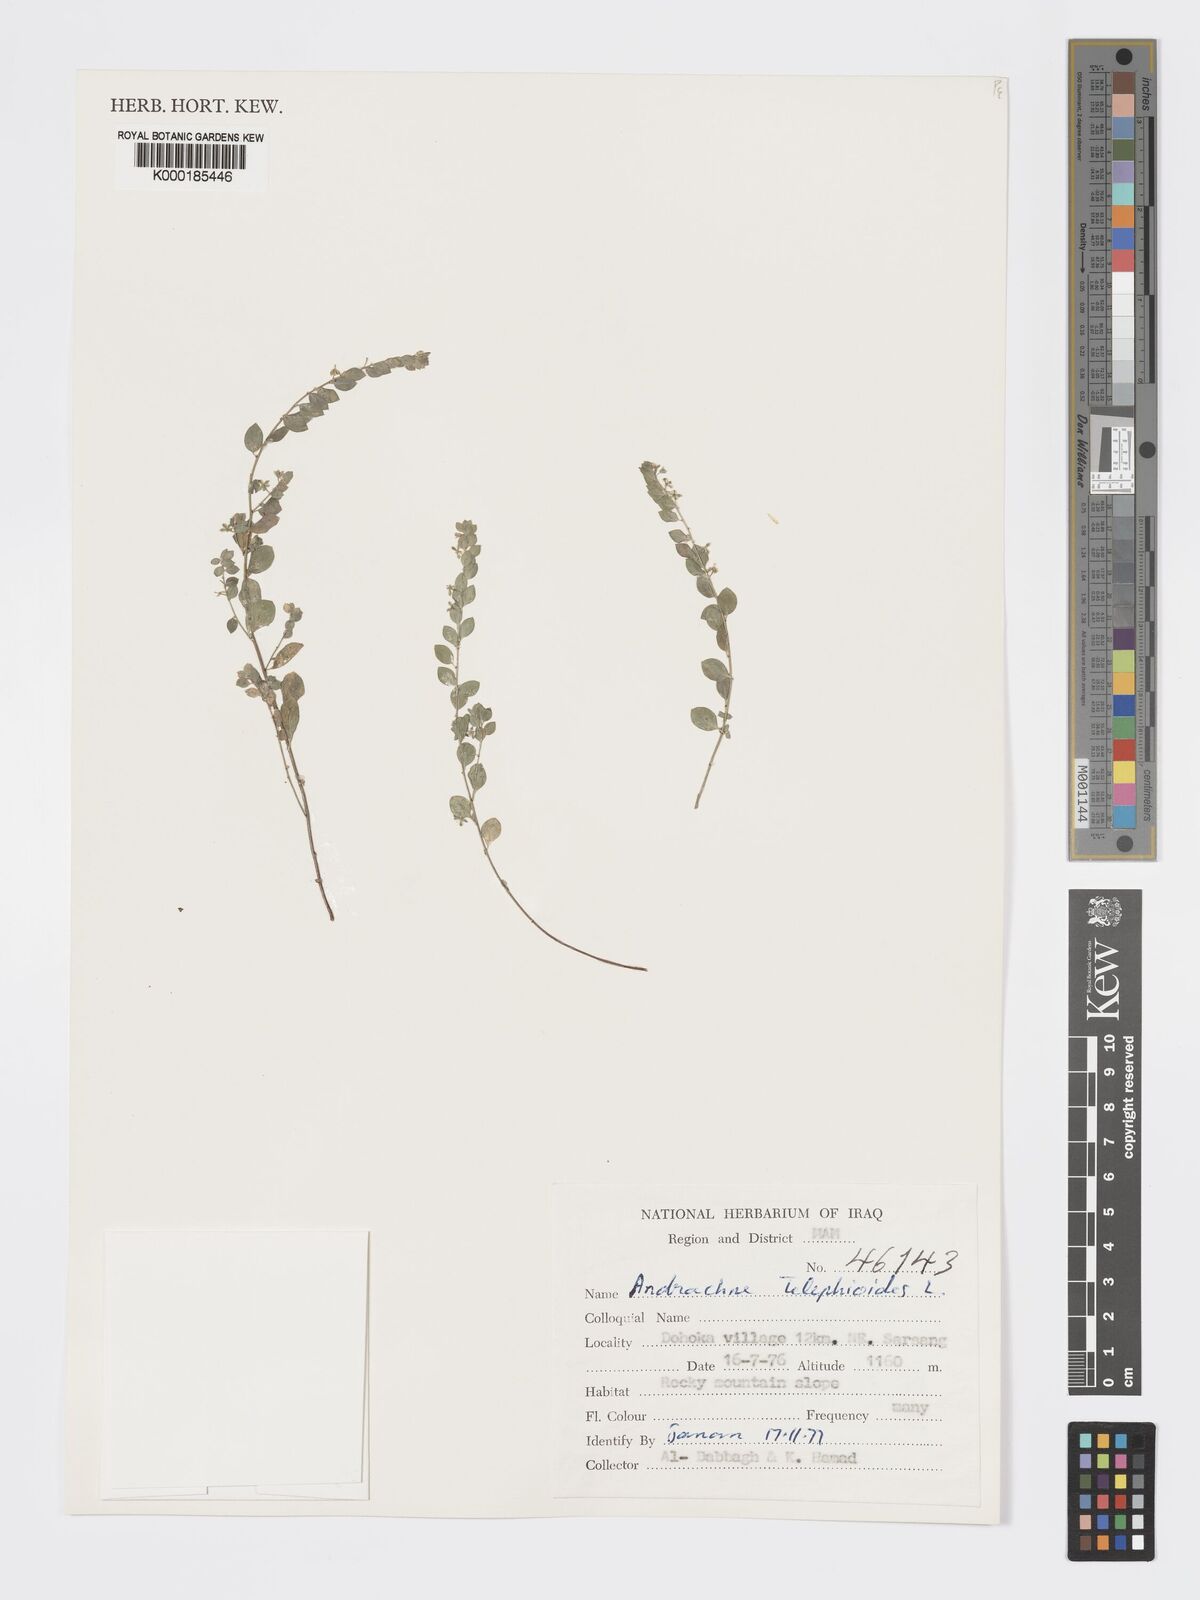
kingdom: Plantae
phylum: Tracheophyta
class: Magnoliopsida
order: Malpighiales
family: Phyllanthaceae
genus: Andrachne
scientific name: Andrachne telephioides
